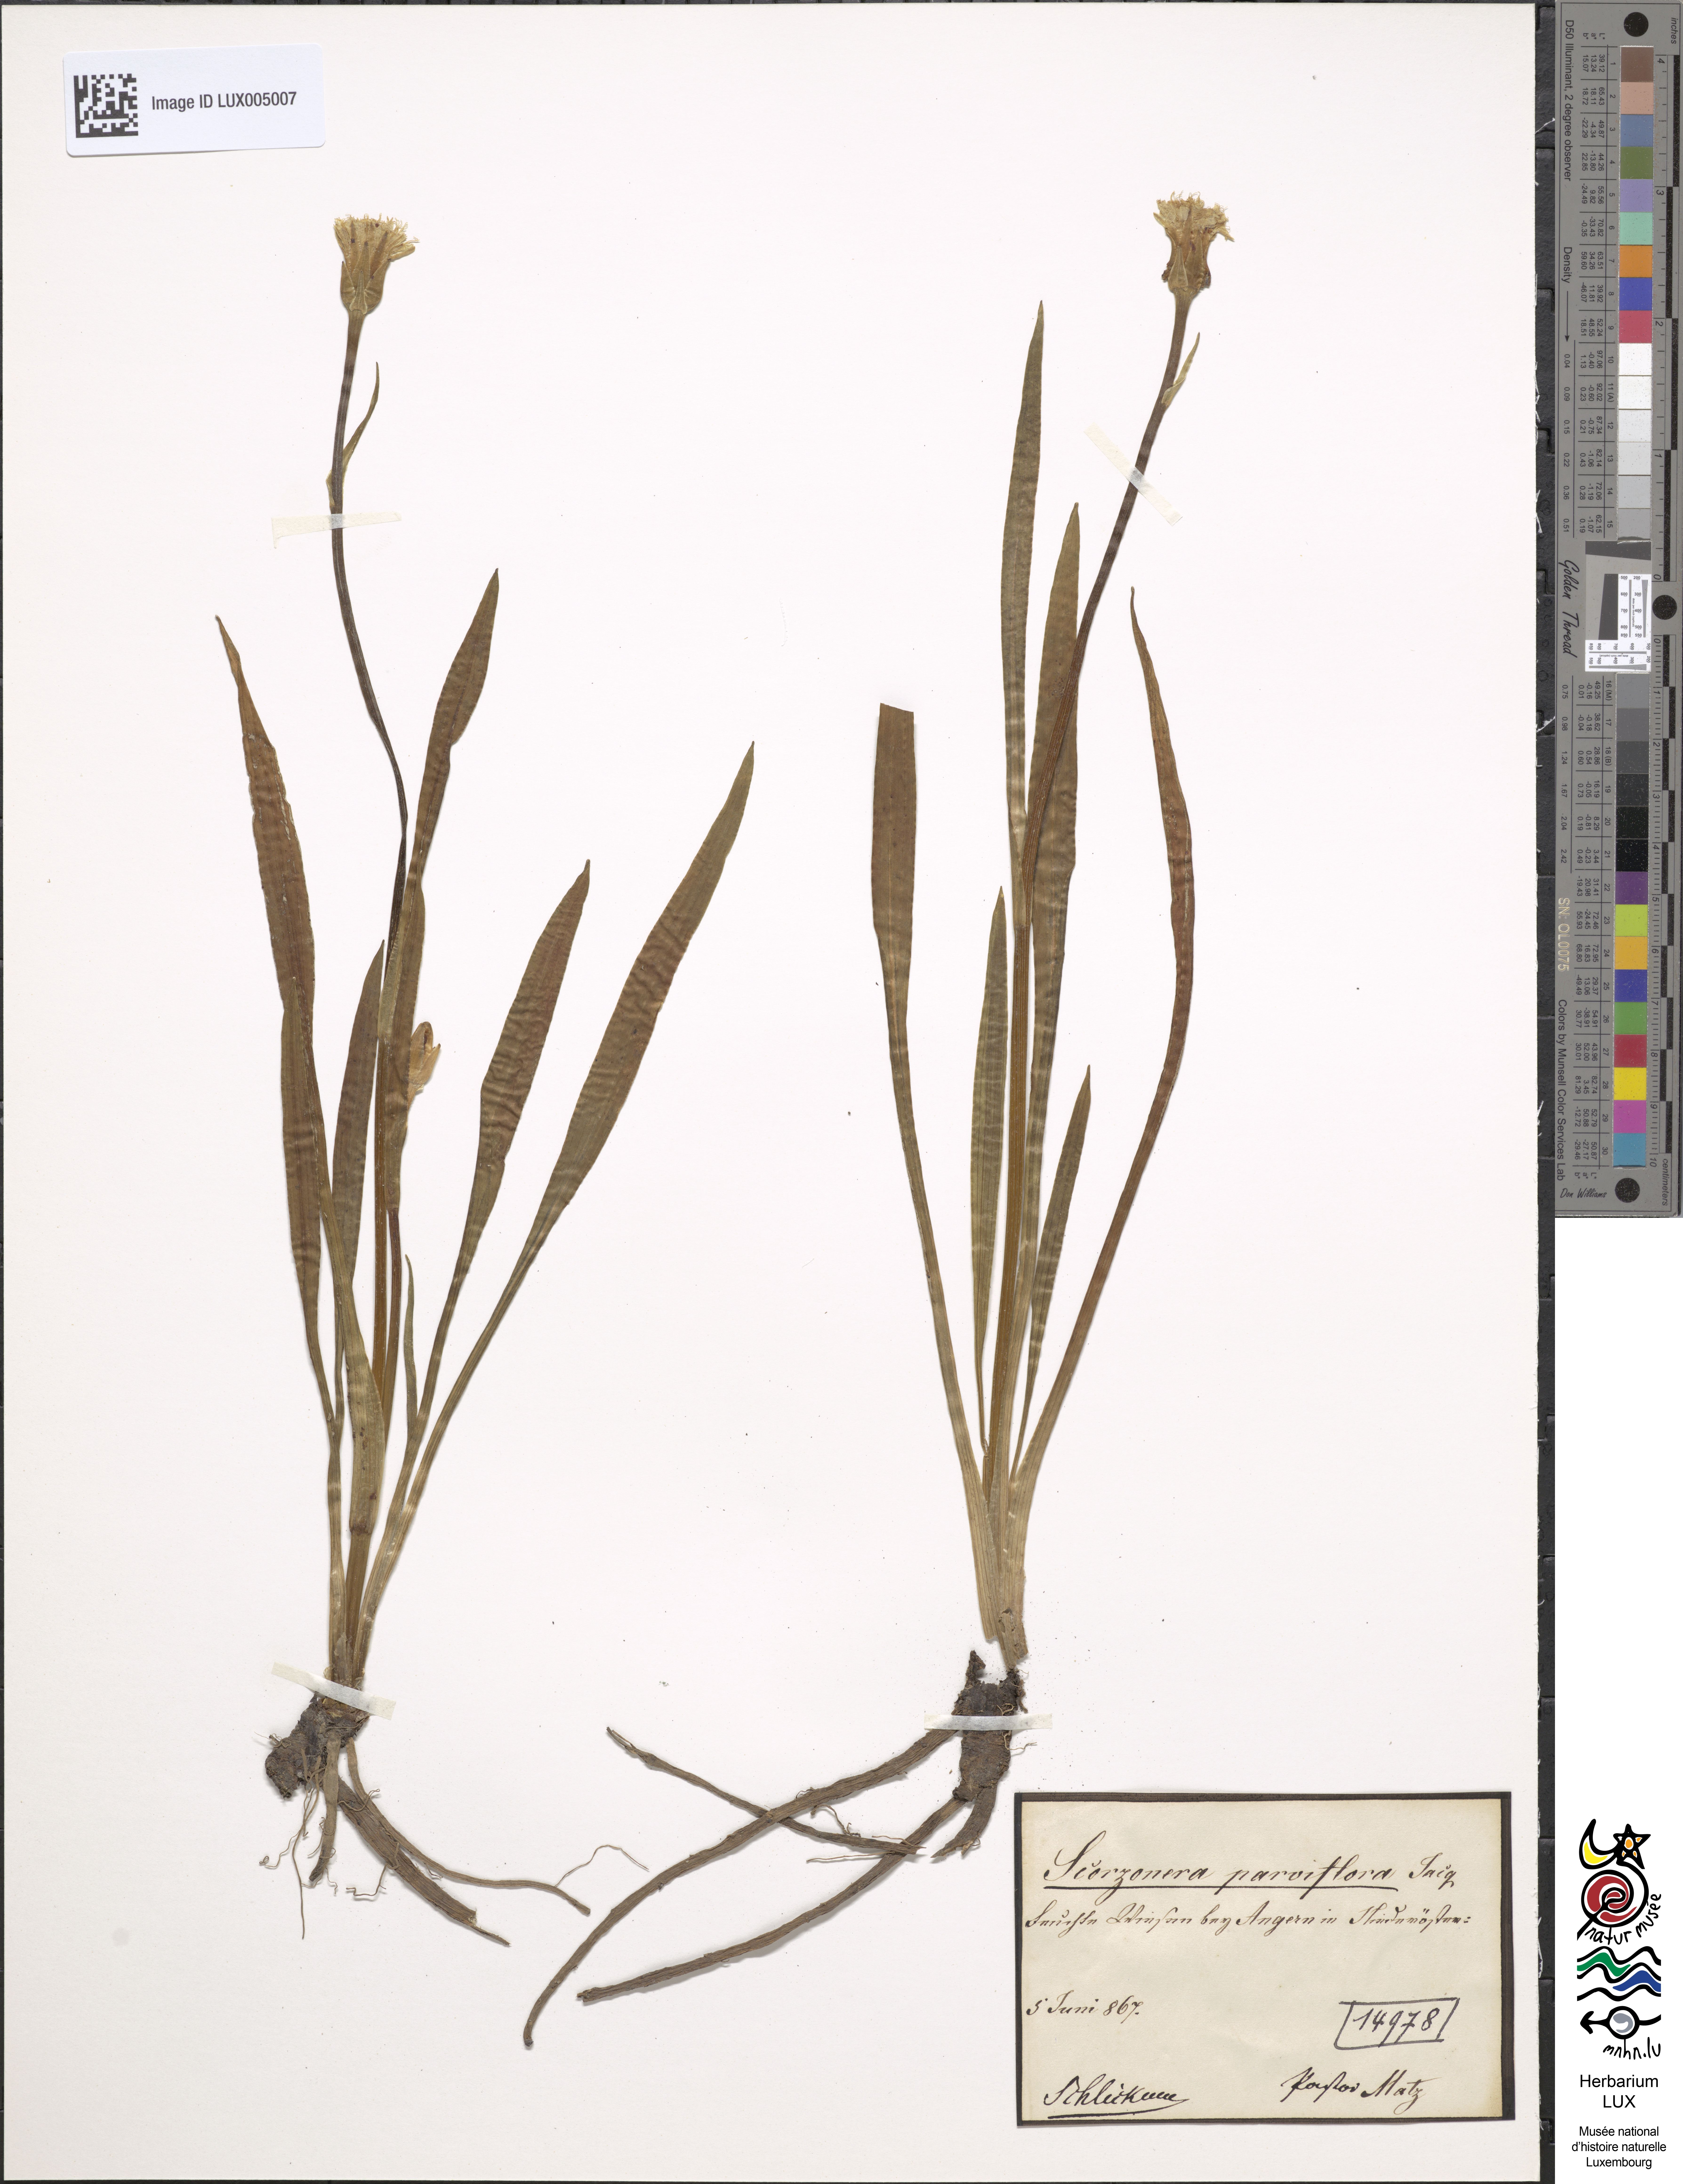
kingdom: Plantae
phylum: Tracheophyta
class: Magnoliopsida
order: Asterales
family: Asteraceae
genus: Scorzonera
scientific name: Scorzonera parviflora
